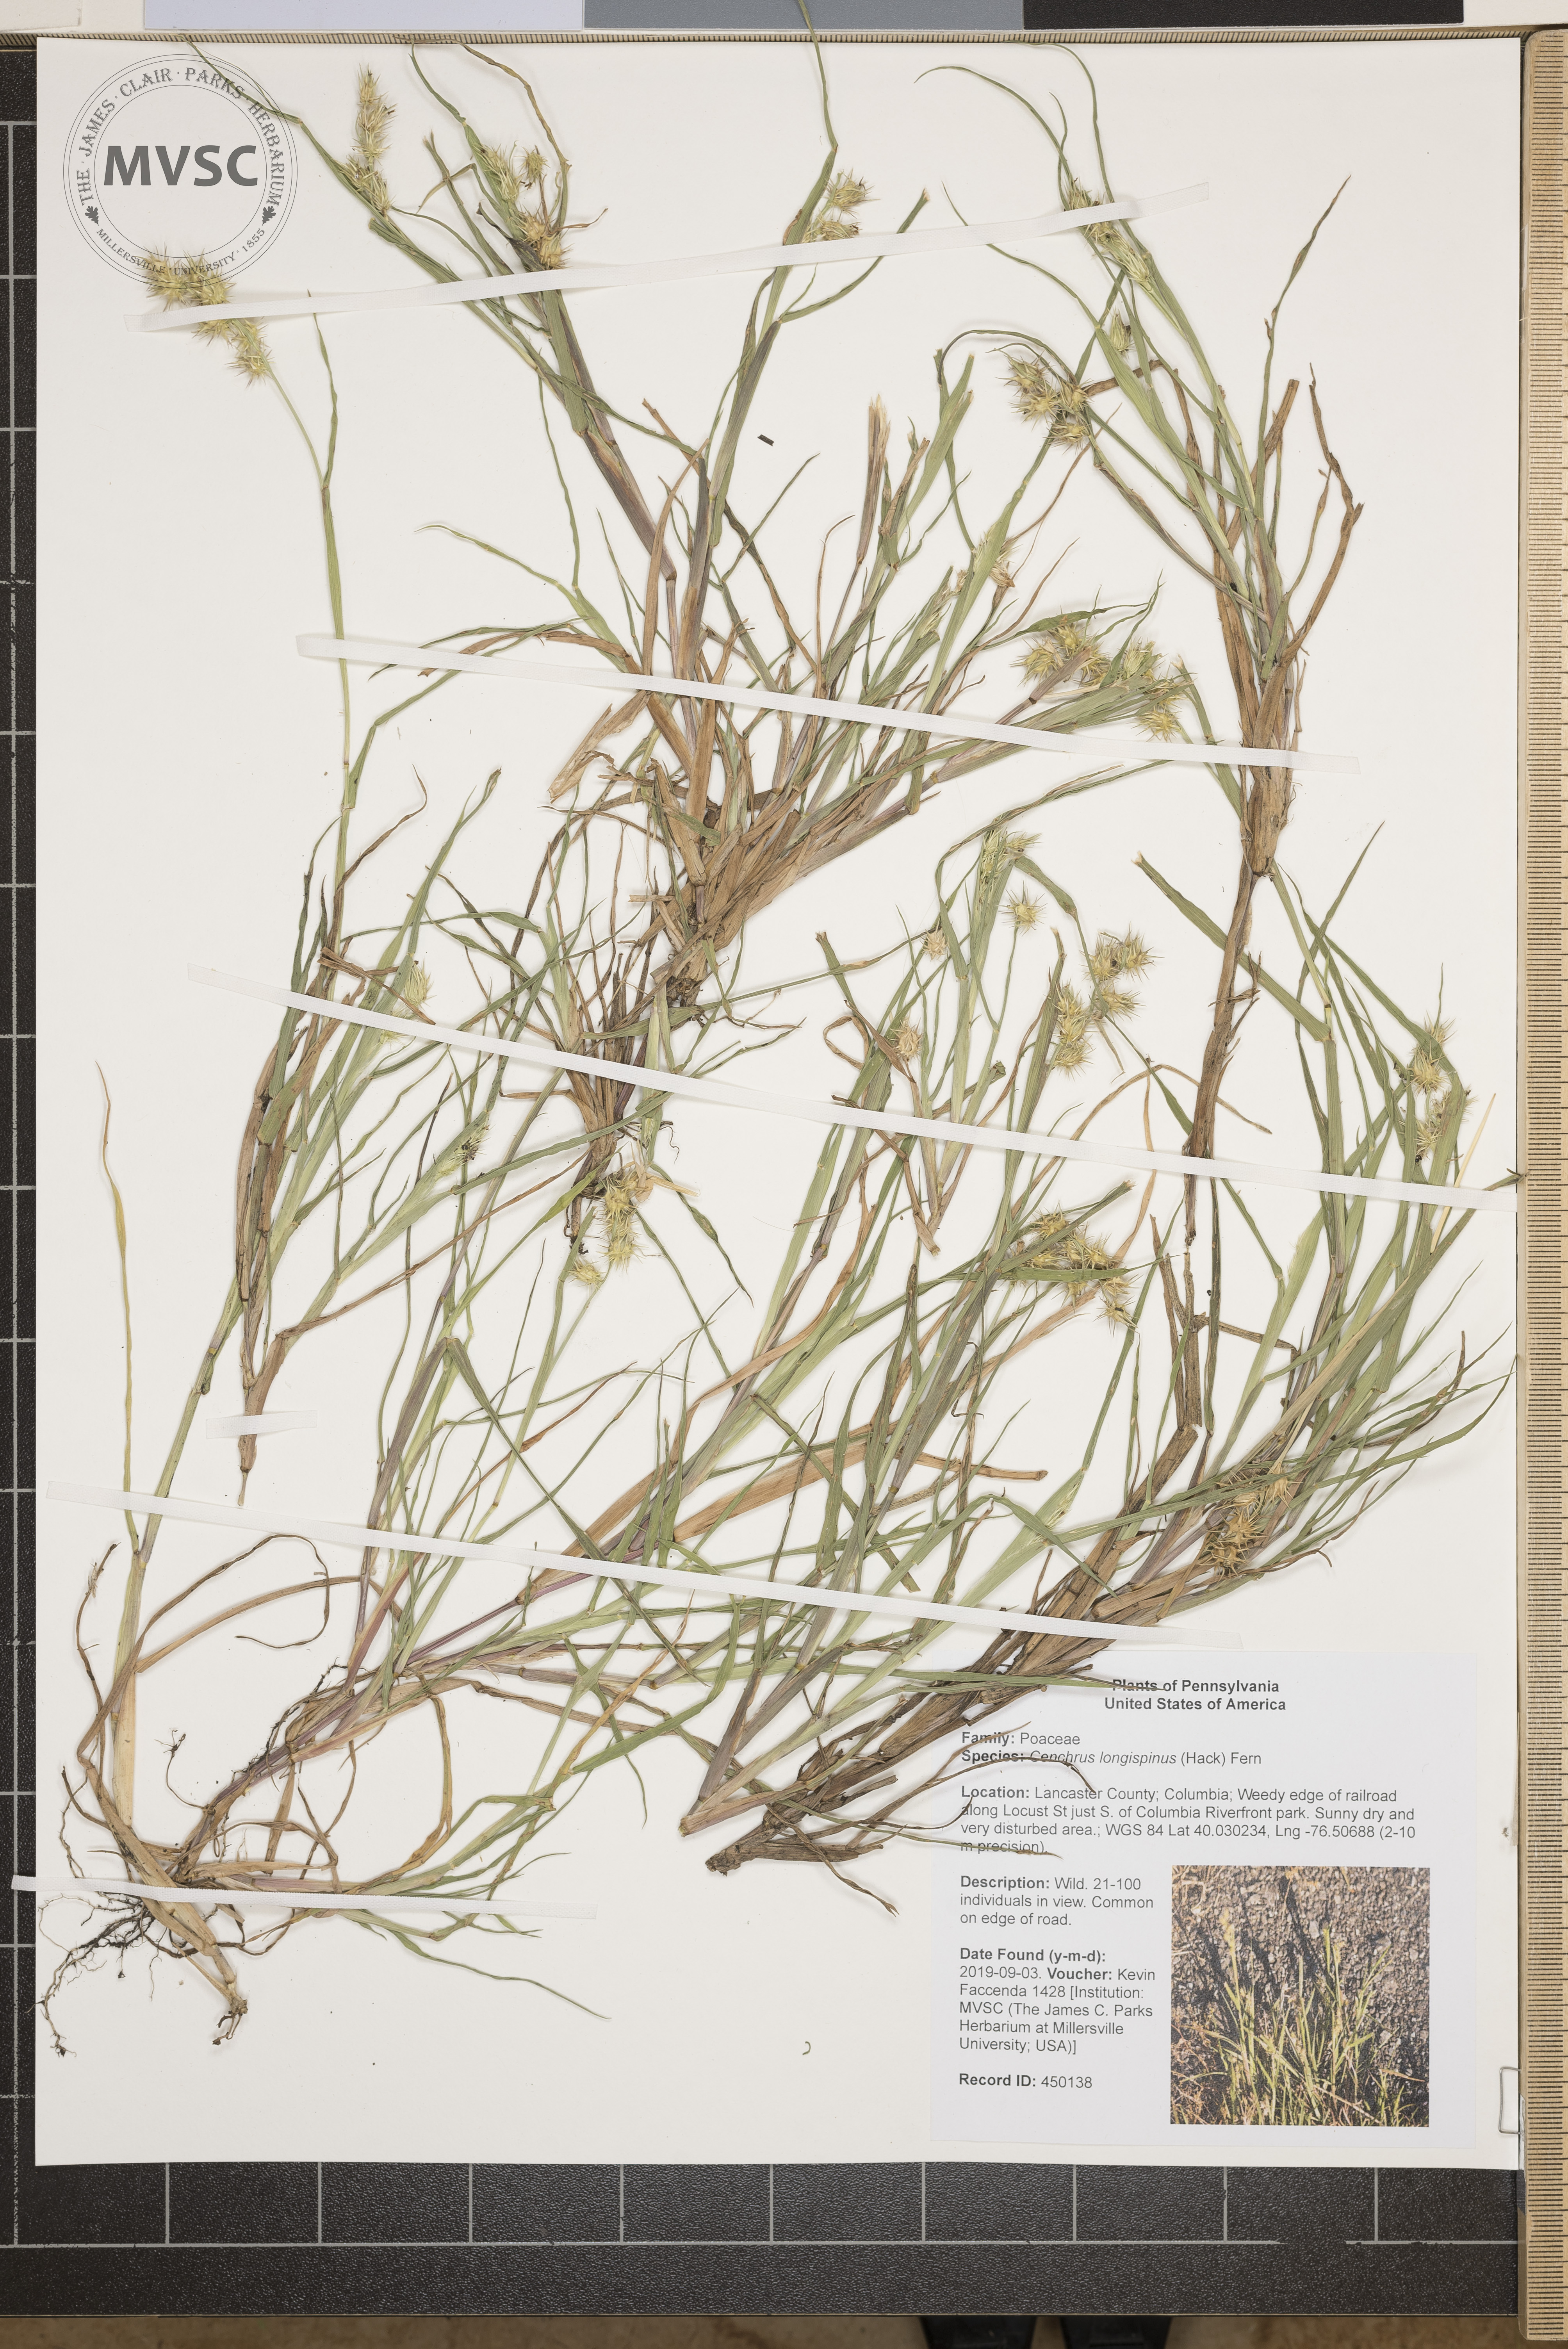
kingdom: Plantae
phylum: Tracheophyta
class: Liliopsida
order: Poales
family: Poaceae
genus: Cenchrus
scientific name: Cenchrus longispinus
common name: Mat sandbur
